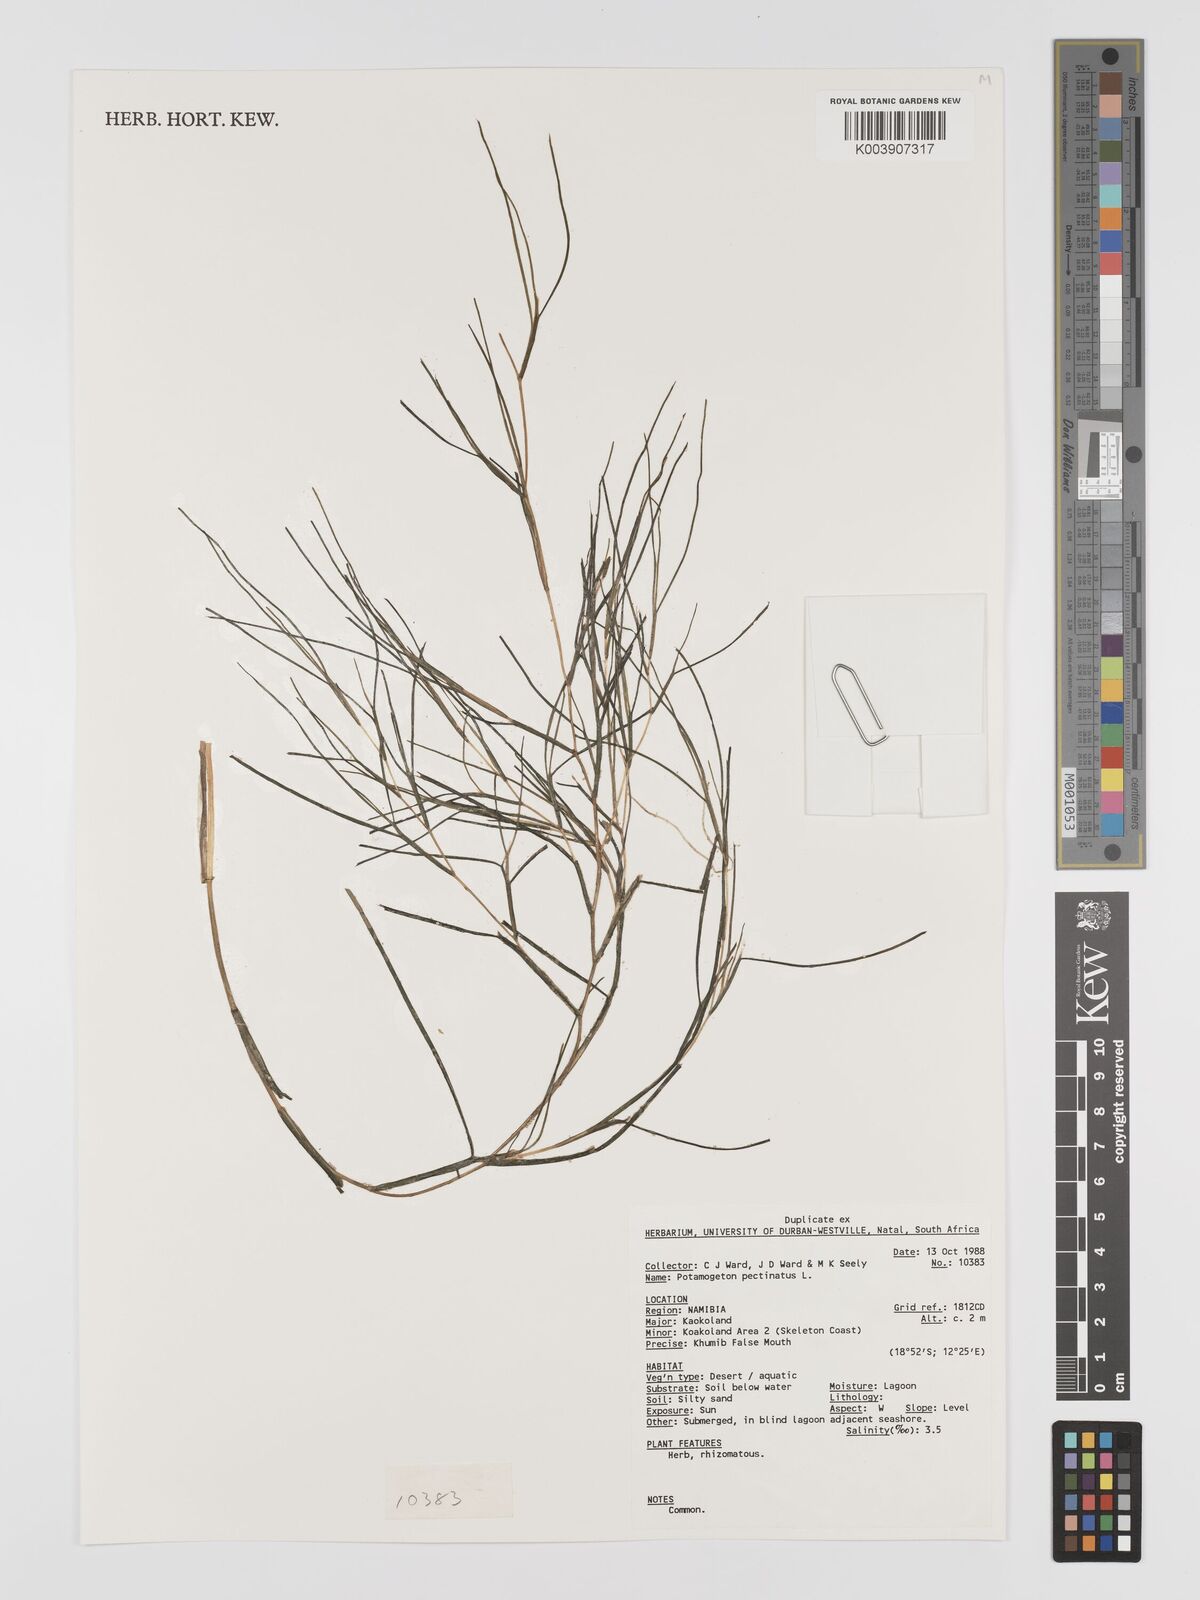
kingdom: Plantae
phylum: Tracheophyta
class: Liliopsida
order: Alismatales
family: Potamogetonaceae
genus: Stuckenia
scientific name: Stuckenia pectinata
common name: Sago pondweed
